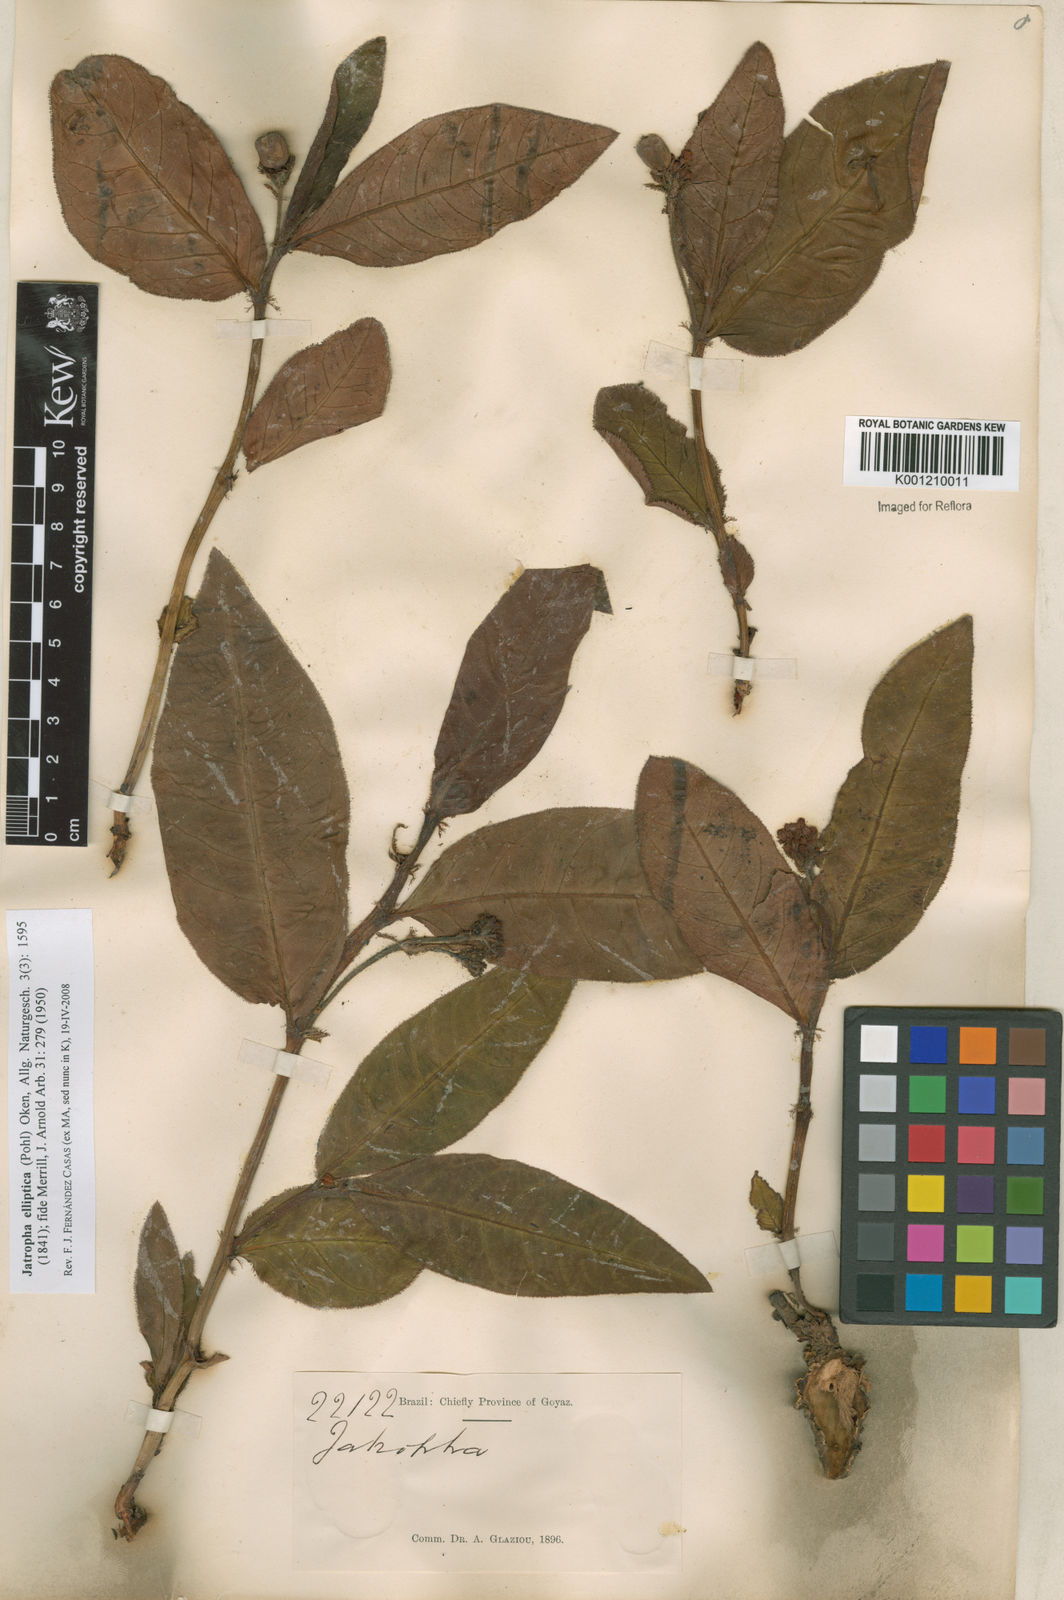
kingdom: Plantae
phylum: Tracheophyta
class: Magnoliopsida
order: Malpighiales
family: Euphorbiaceae
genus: Jatropha
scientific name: Jatropha elliptica
